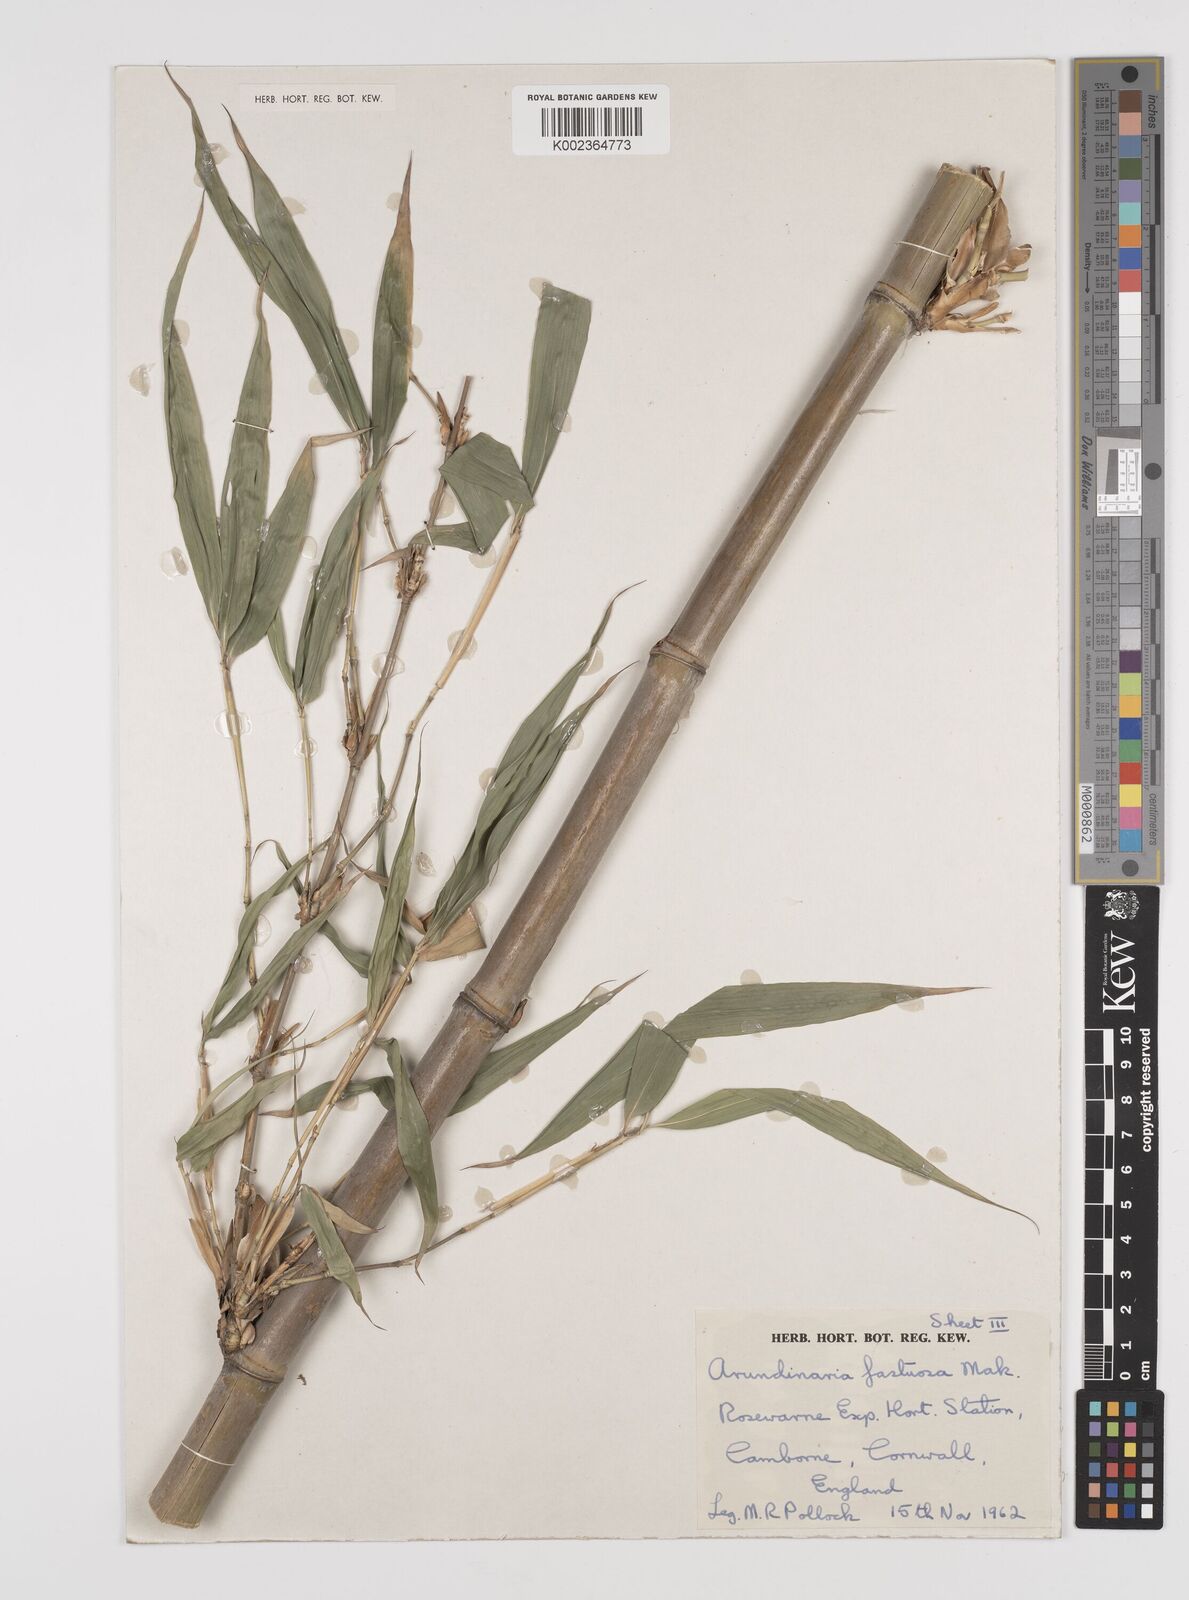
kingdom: Plantae
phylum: Tracheophyta
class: Liliopsida
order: Poales
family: Poaceae
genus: Semiarundinaria
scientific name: Semiarundinaria fastuosa
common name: Narihira bamboo
